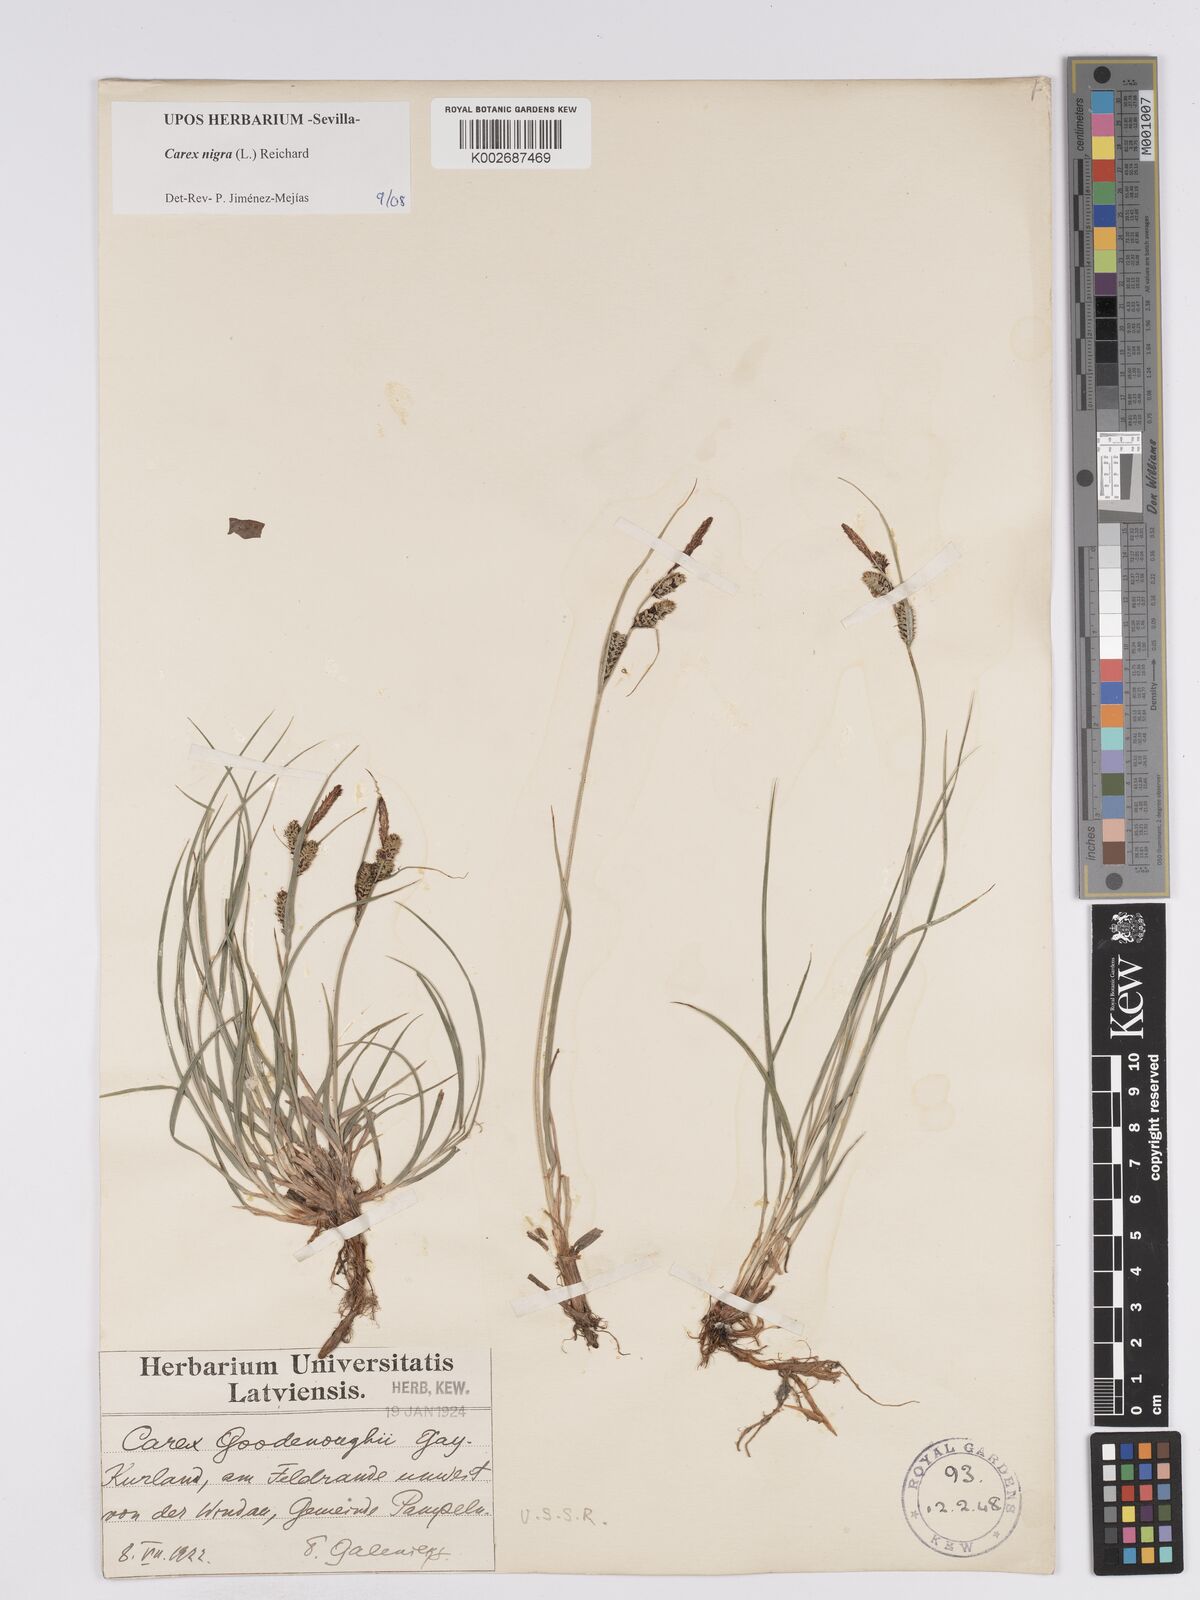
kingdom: Plantae
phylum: Tracheophyta
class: Liliopsida
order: Poales
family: Cyperaceae
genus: Carex
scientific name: Carex nigra
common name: Common sedge
